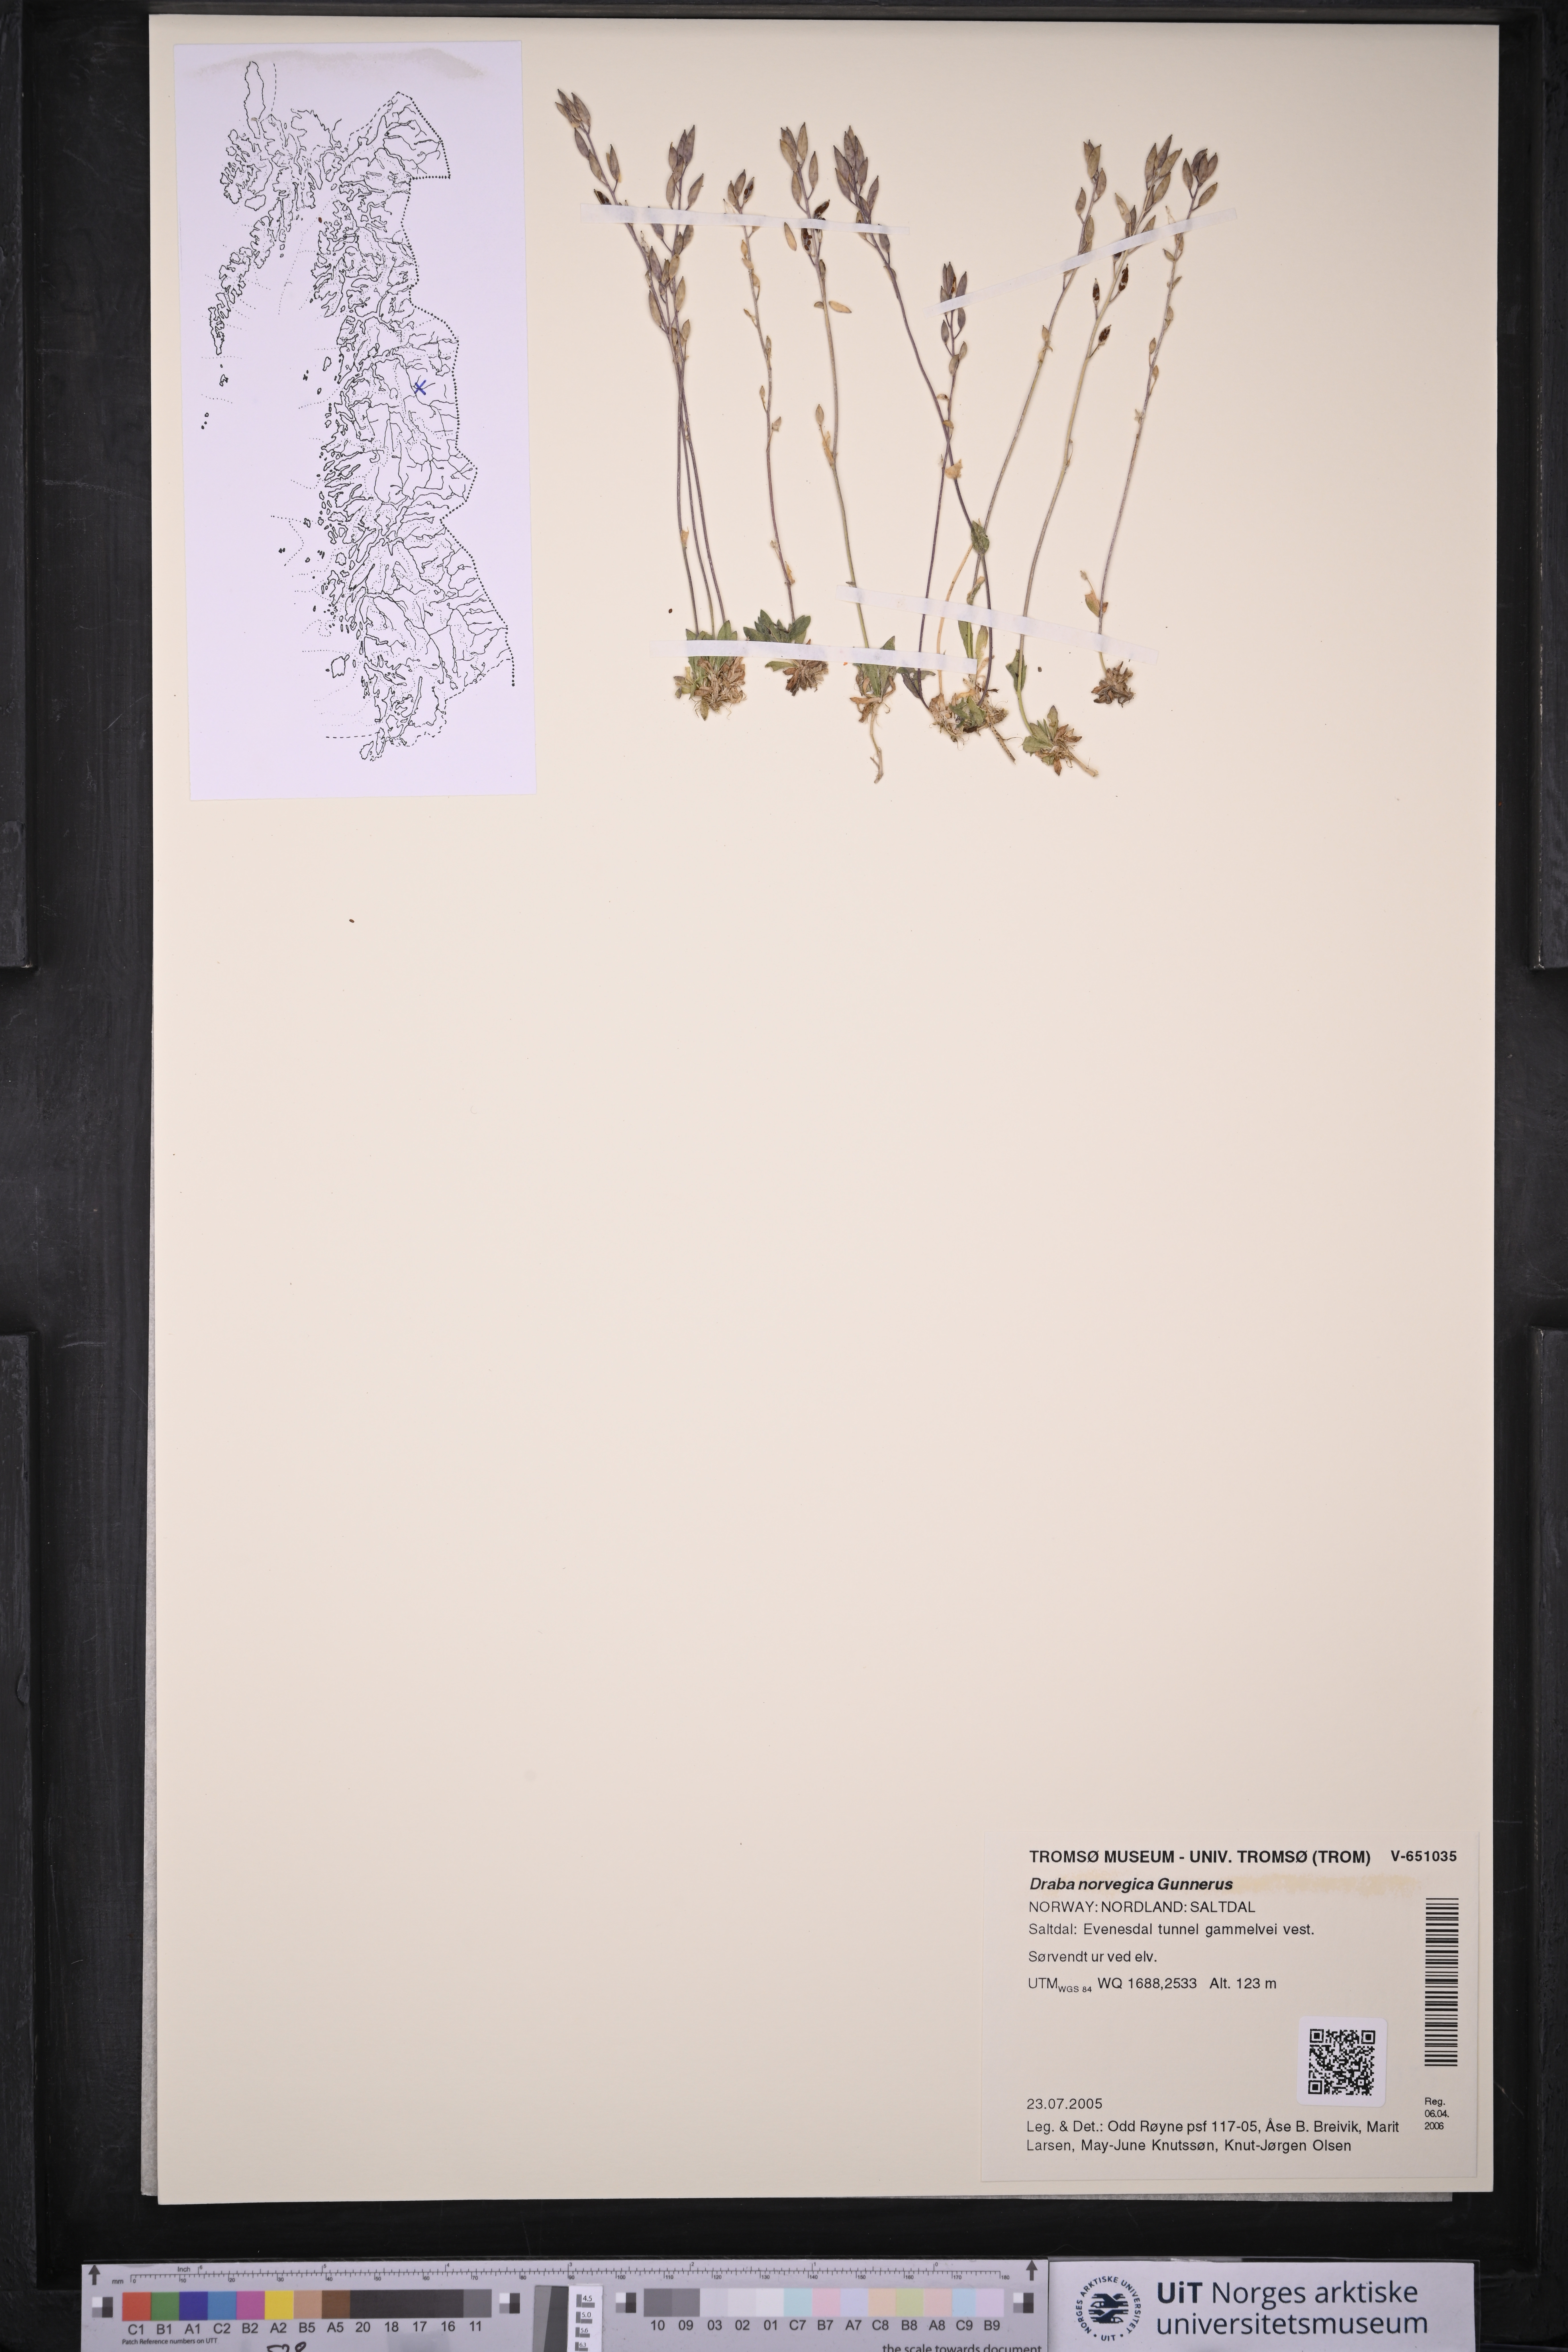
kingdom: Plantae
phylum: Tracheophyta
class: Magnoliopsida
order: Brassicales
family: Brassicaceae
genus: Draba
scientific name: Draba norvegica
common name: Rock whitlowgrass
